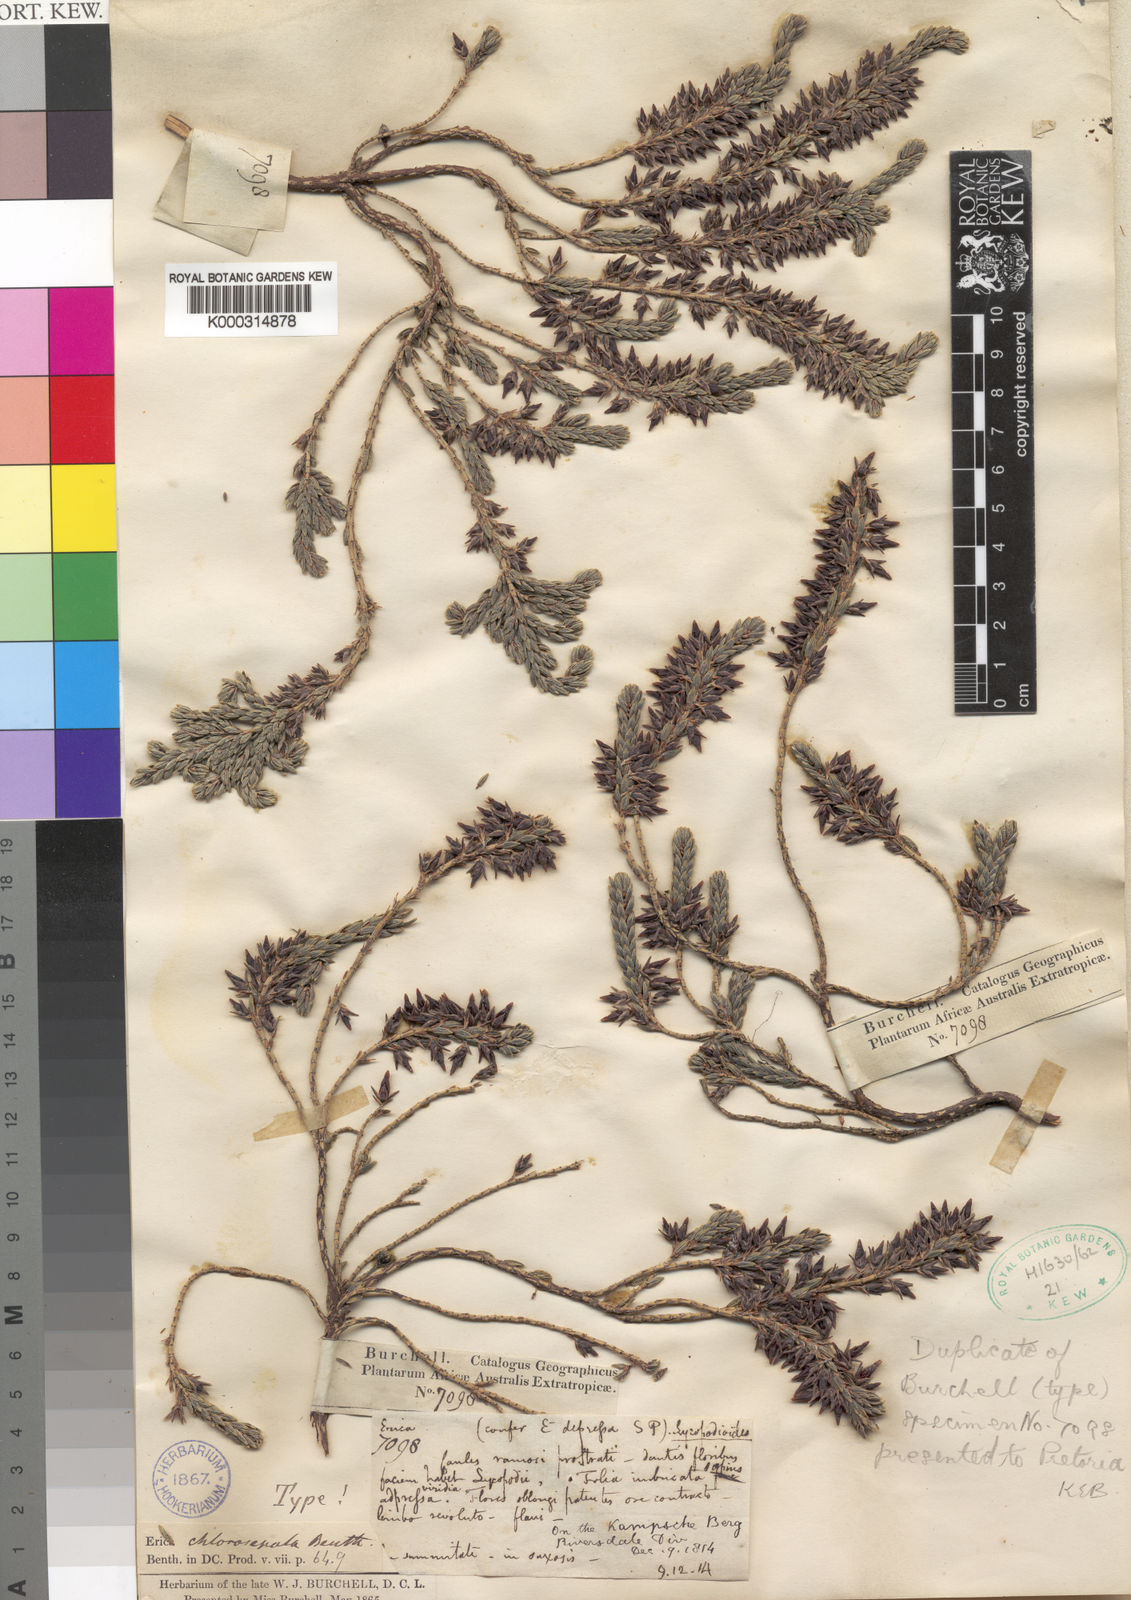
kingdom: Plantae
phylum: Tracheophyta
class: Magnoliopsida
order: Ericales
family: Ericaceae
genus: Erica
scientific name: Erica chlorosepala
